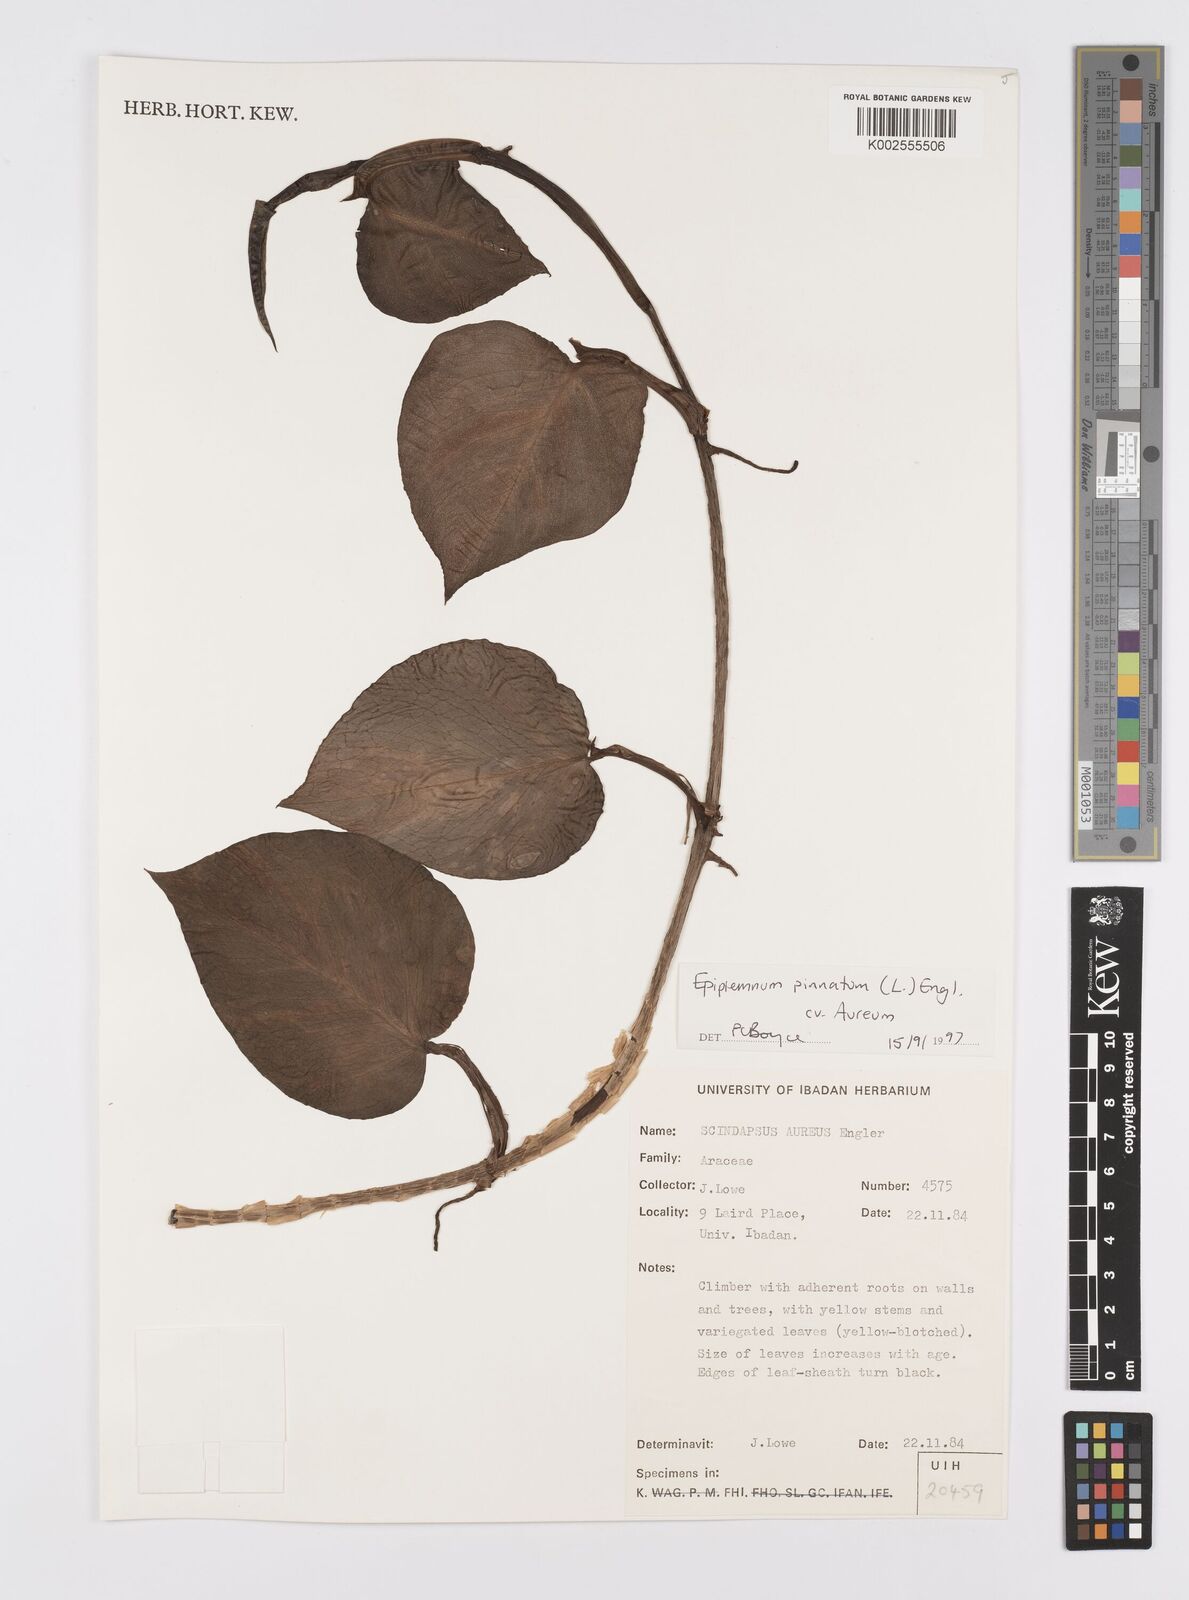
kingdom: Plantae
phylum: Tracheophyta
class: Liliopsida
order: Alismatales
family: Araceae
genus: Epipremnum
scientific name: Epipremnum aureum
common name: Golden hunter's-robe
